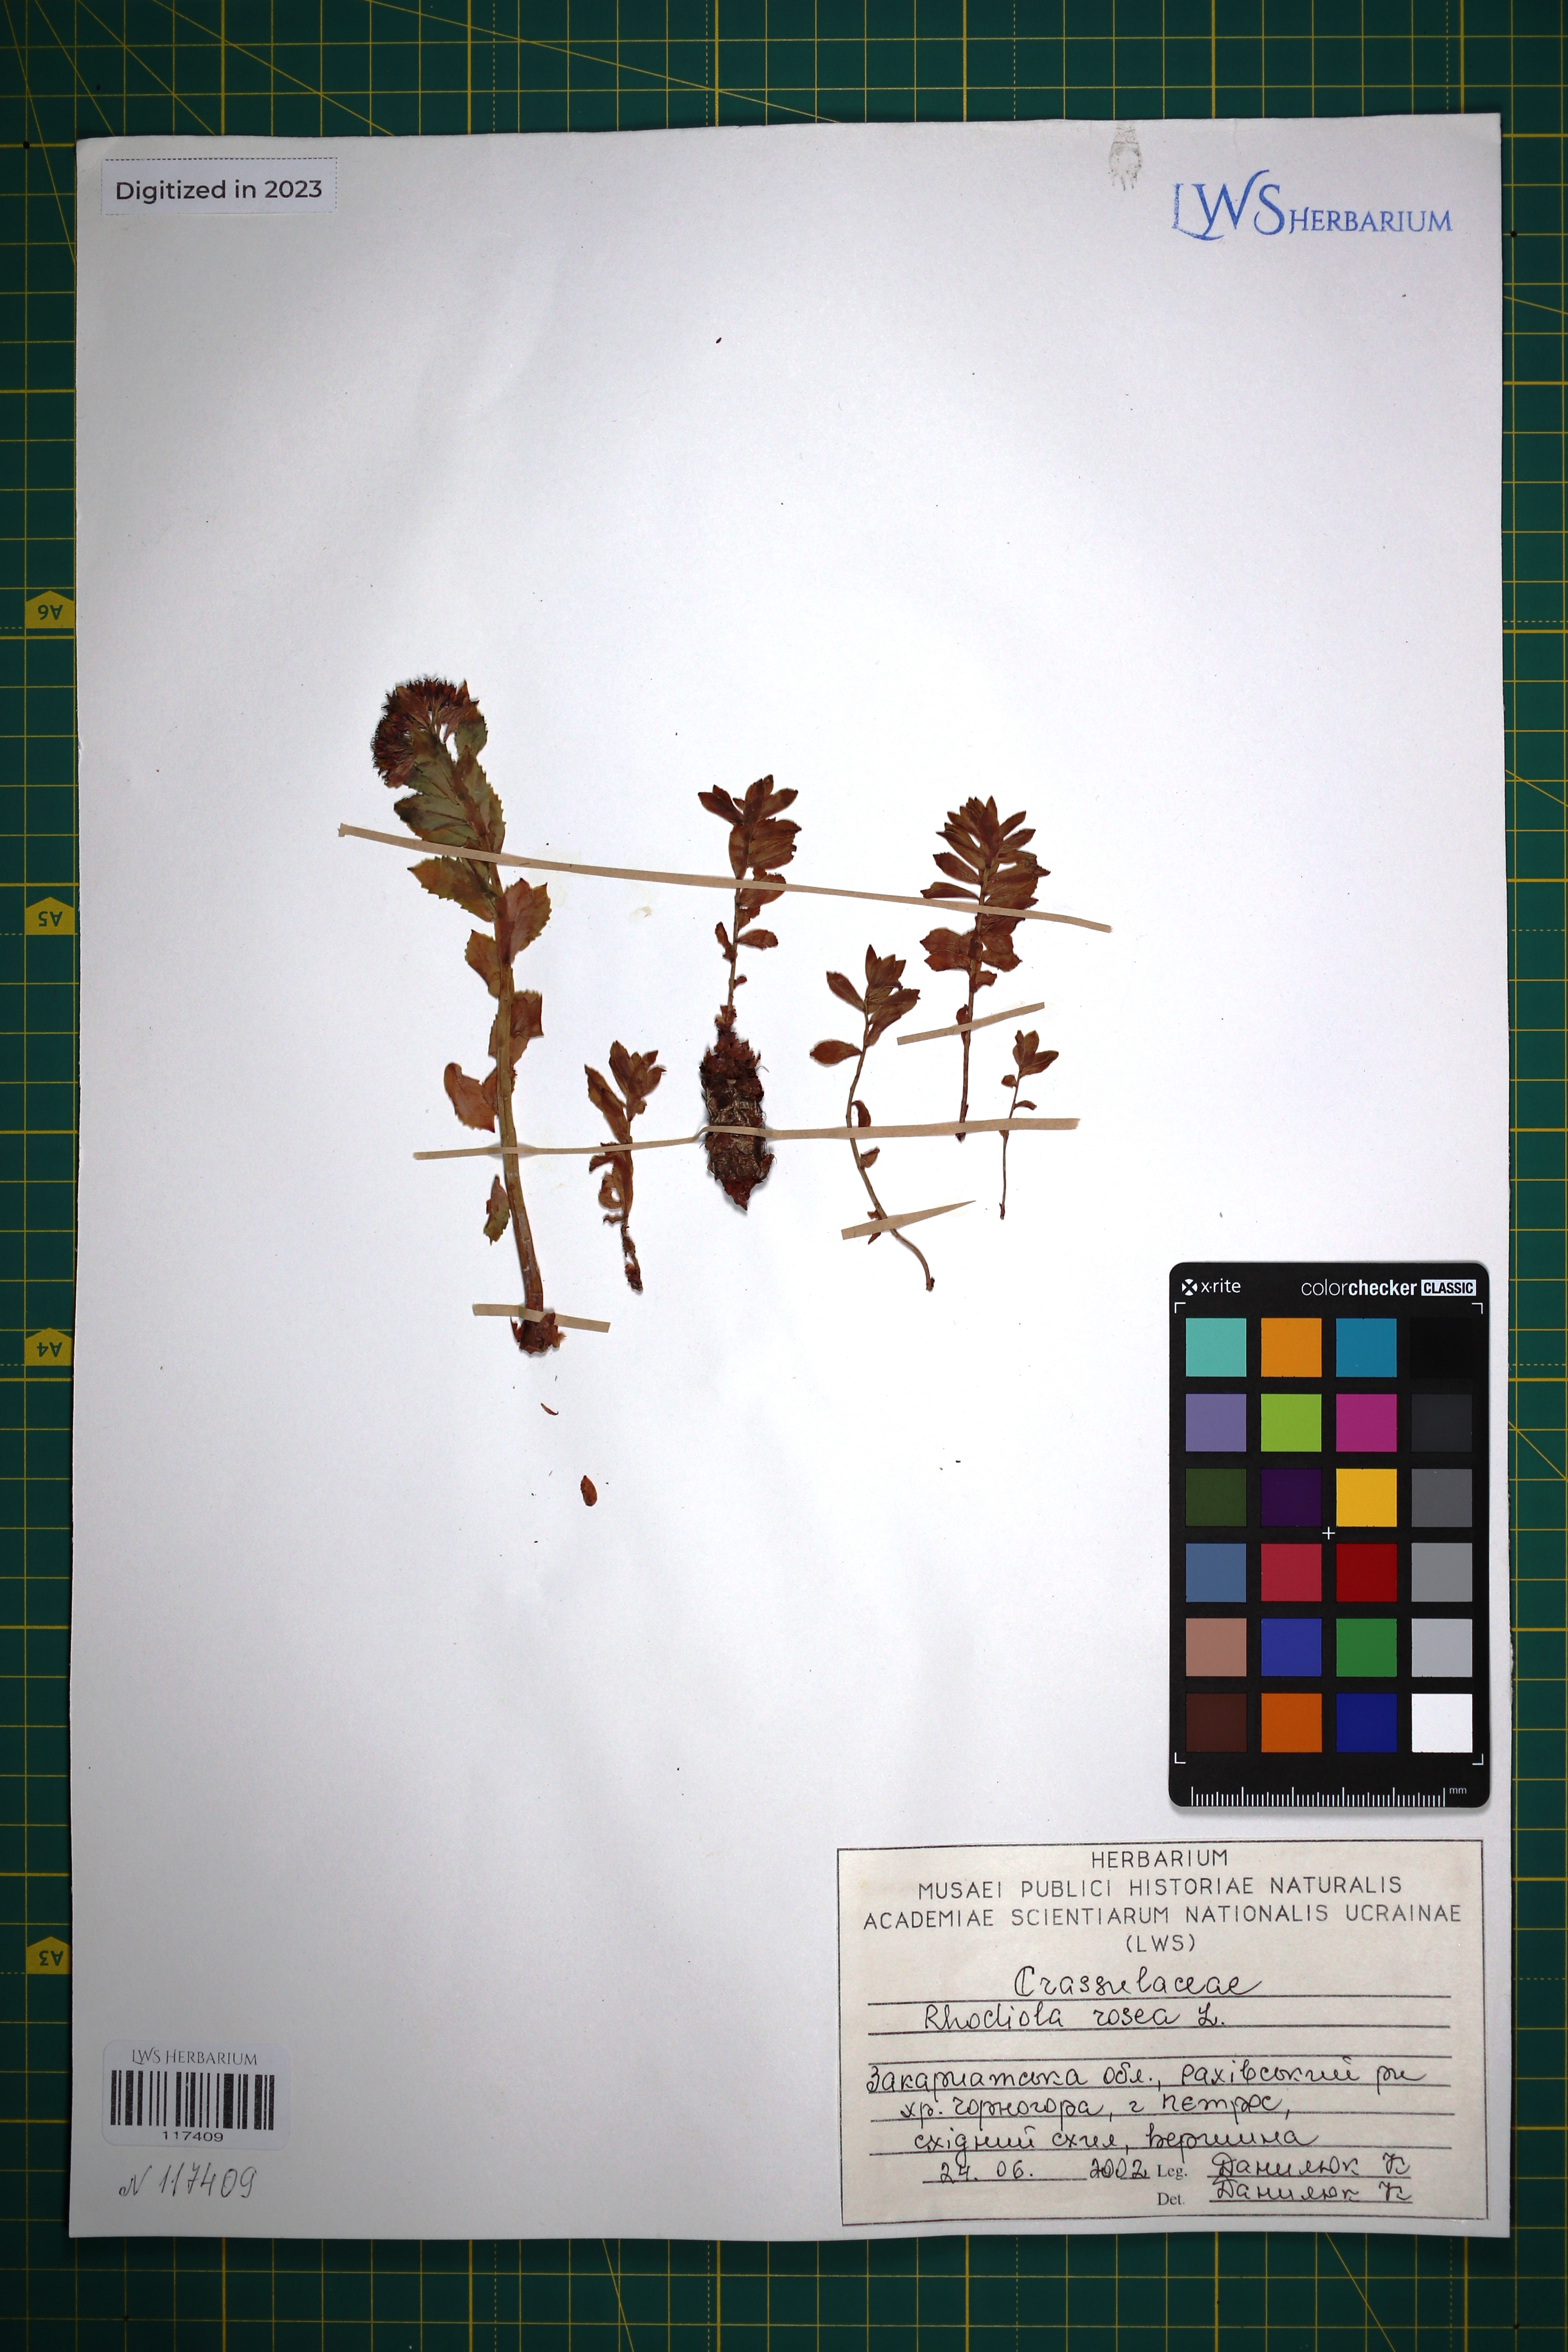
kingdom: Plantae
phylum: Tracheophyta
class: Magnoliopsida
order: Saxifragales
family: Crassulaceae
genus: Rhodiola
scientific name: Rhodiola rosea
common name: Roseroot
